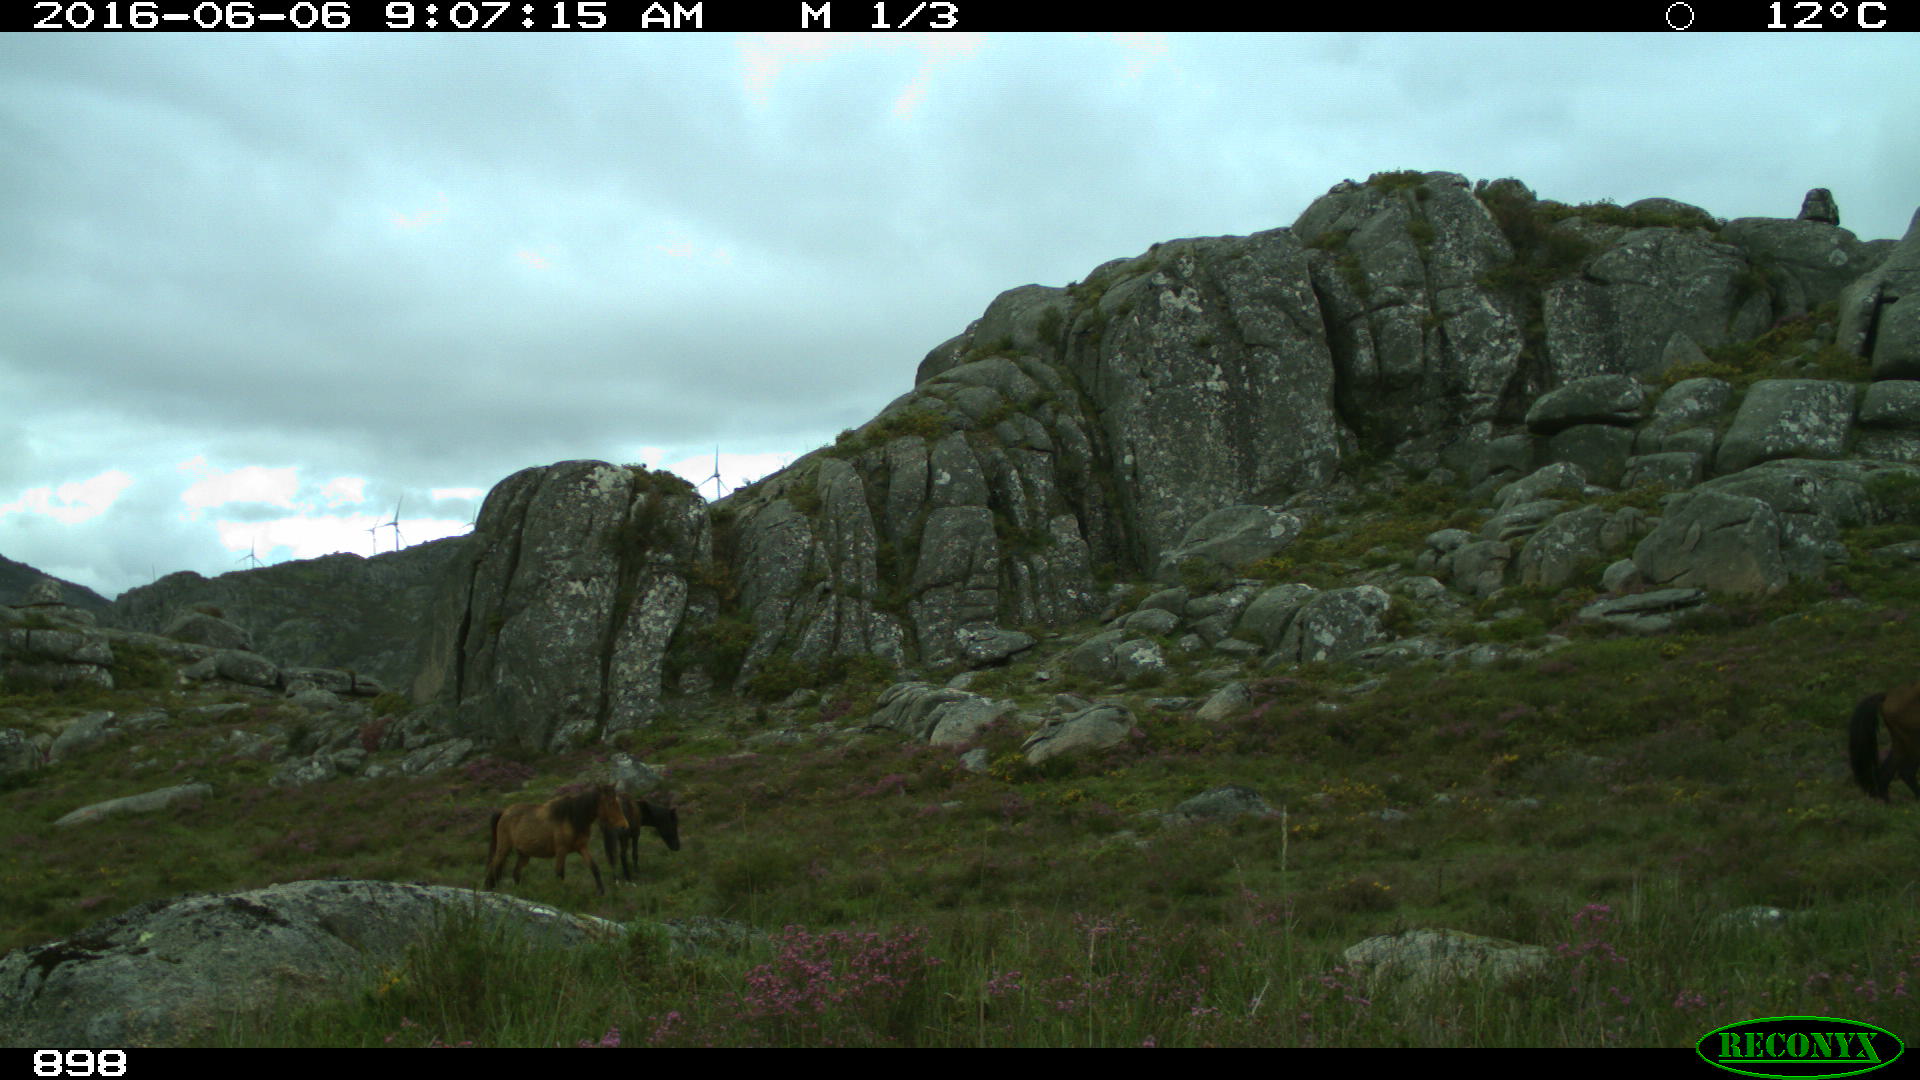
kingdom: Animalia
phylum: Chordata
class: Mammalia
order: Perissodactyla
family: Equidae
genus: Equus
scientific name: Equus caballus
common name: Horse
